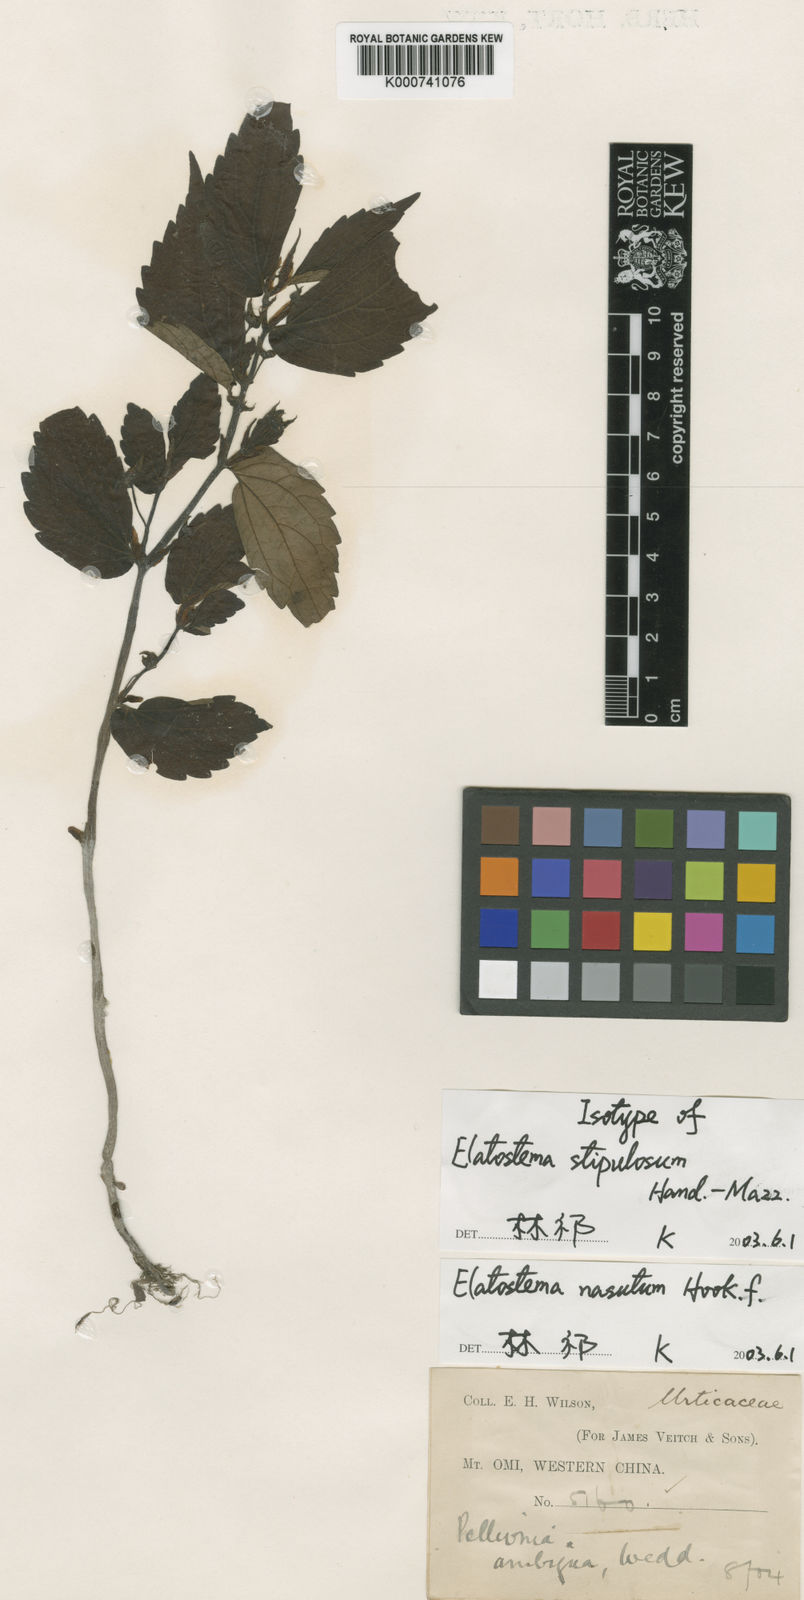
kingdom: Plantae
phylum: Tracheophyta
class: Magnoliopsida
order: Rosales
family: Urticaceae
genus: Elatostema
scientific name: Elatostema nasutum
